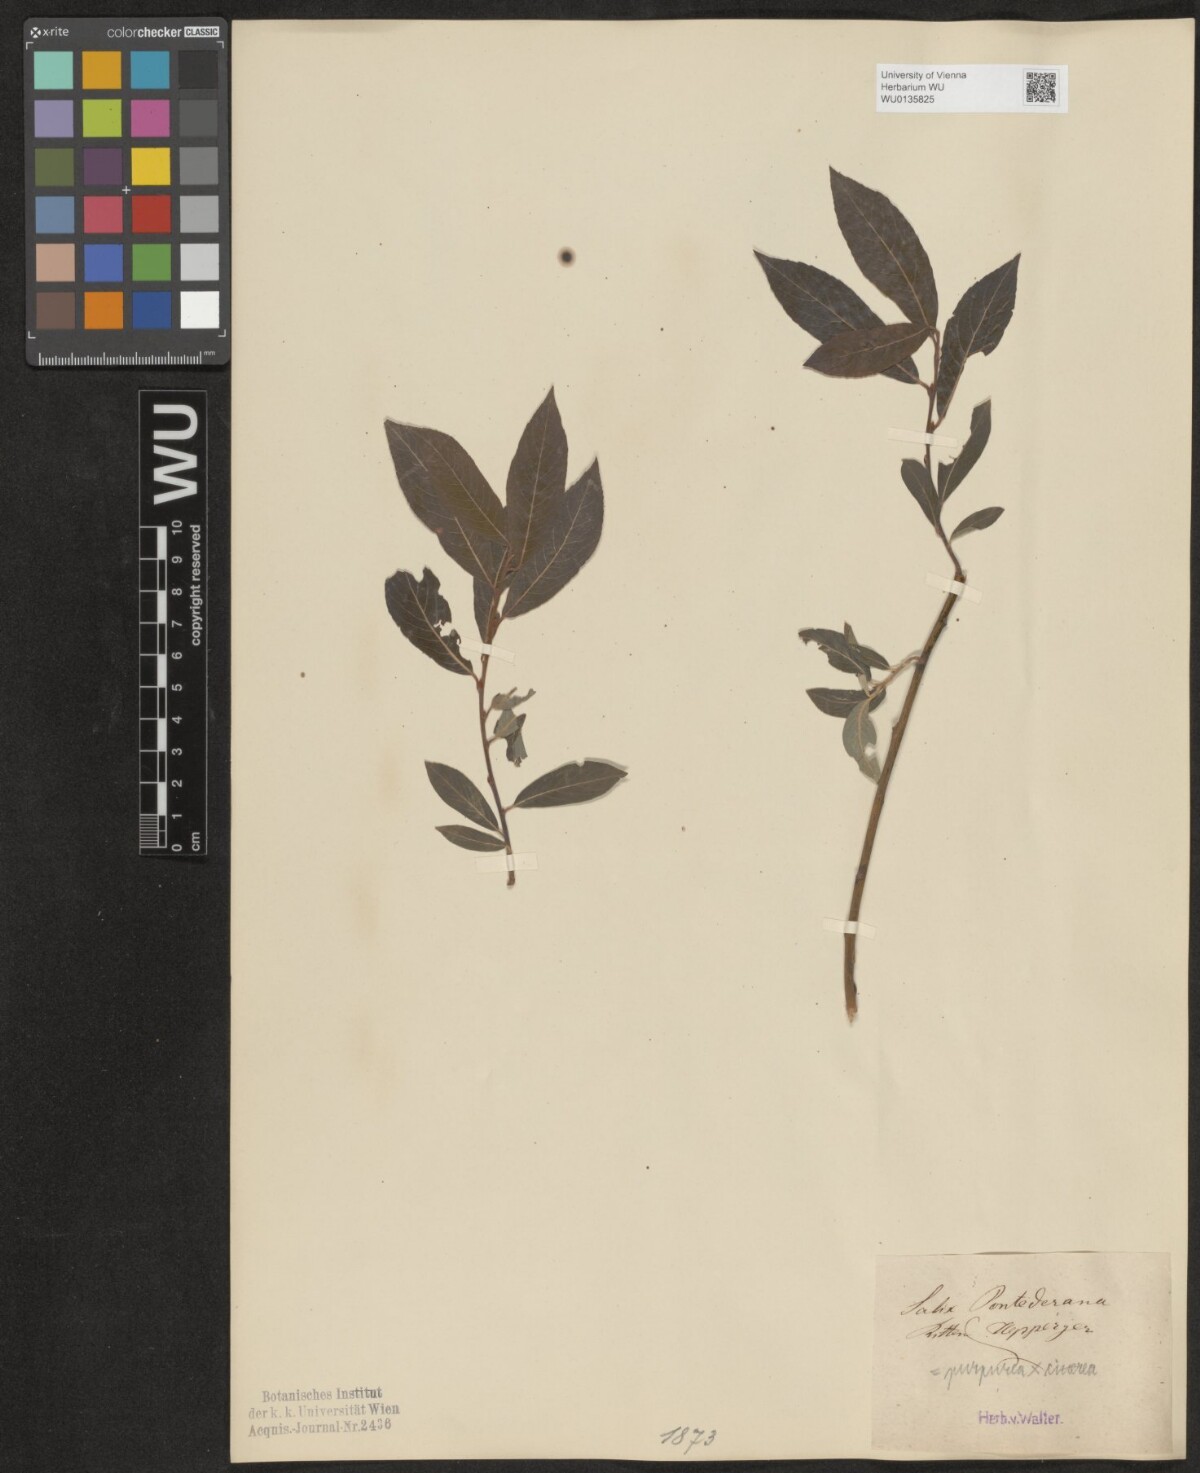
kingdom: Plantae
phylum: Tracheophyta
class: Magnoliopsida
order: Malpighiales
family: Salicaceae
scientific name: Salicaceae
